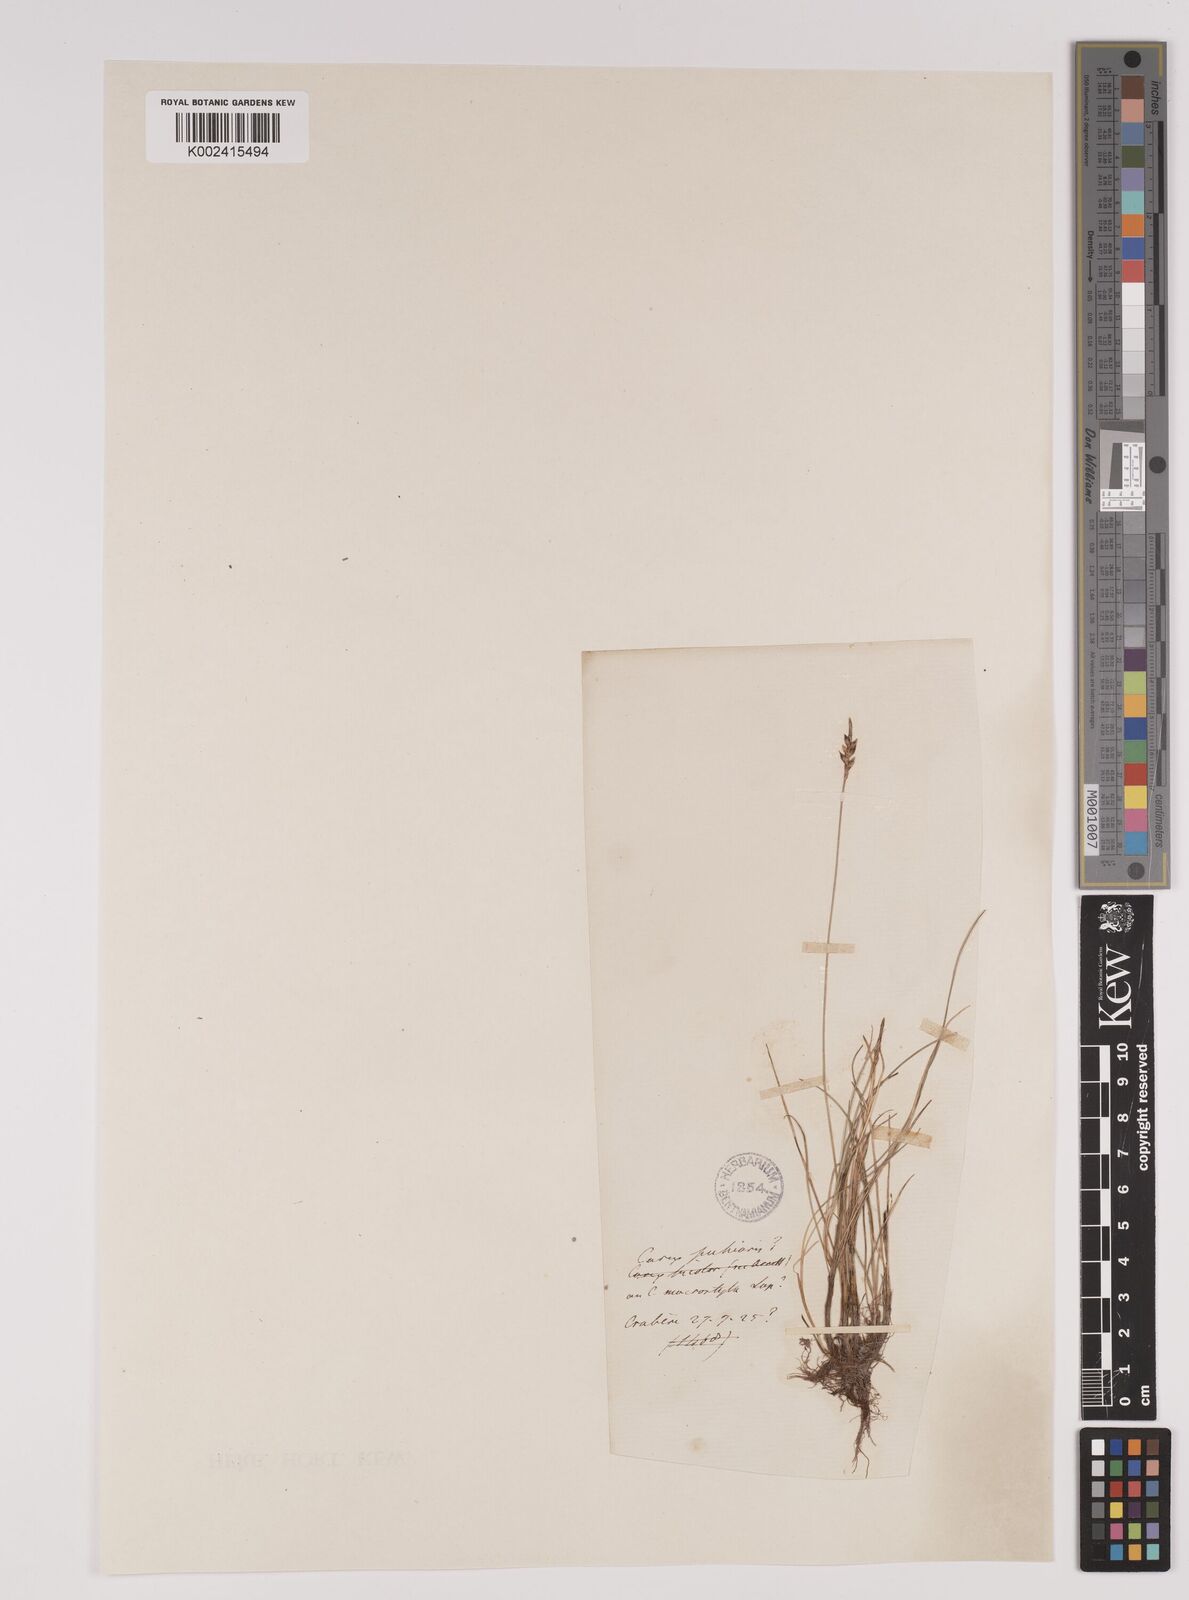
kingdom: Plantae
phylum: Tracheophyta
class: Liliopsida
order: Poales
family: Cyperaceae
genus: Carex
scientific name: Carex pulicaris
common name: Flea sedge
